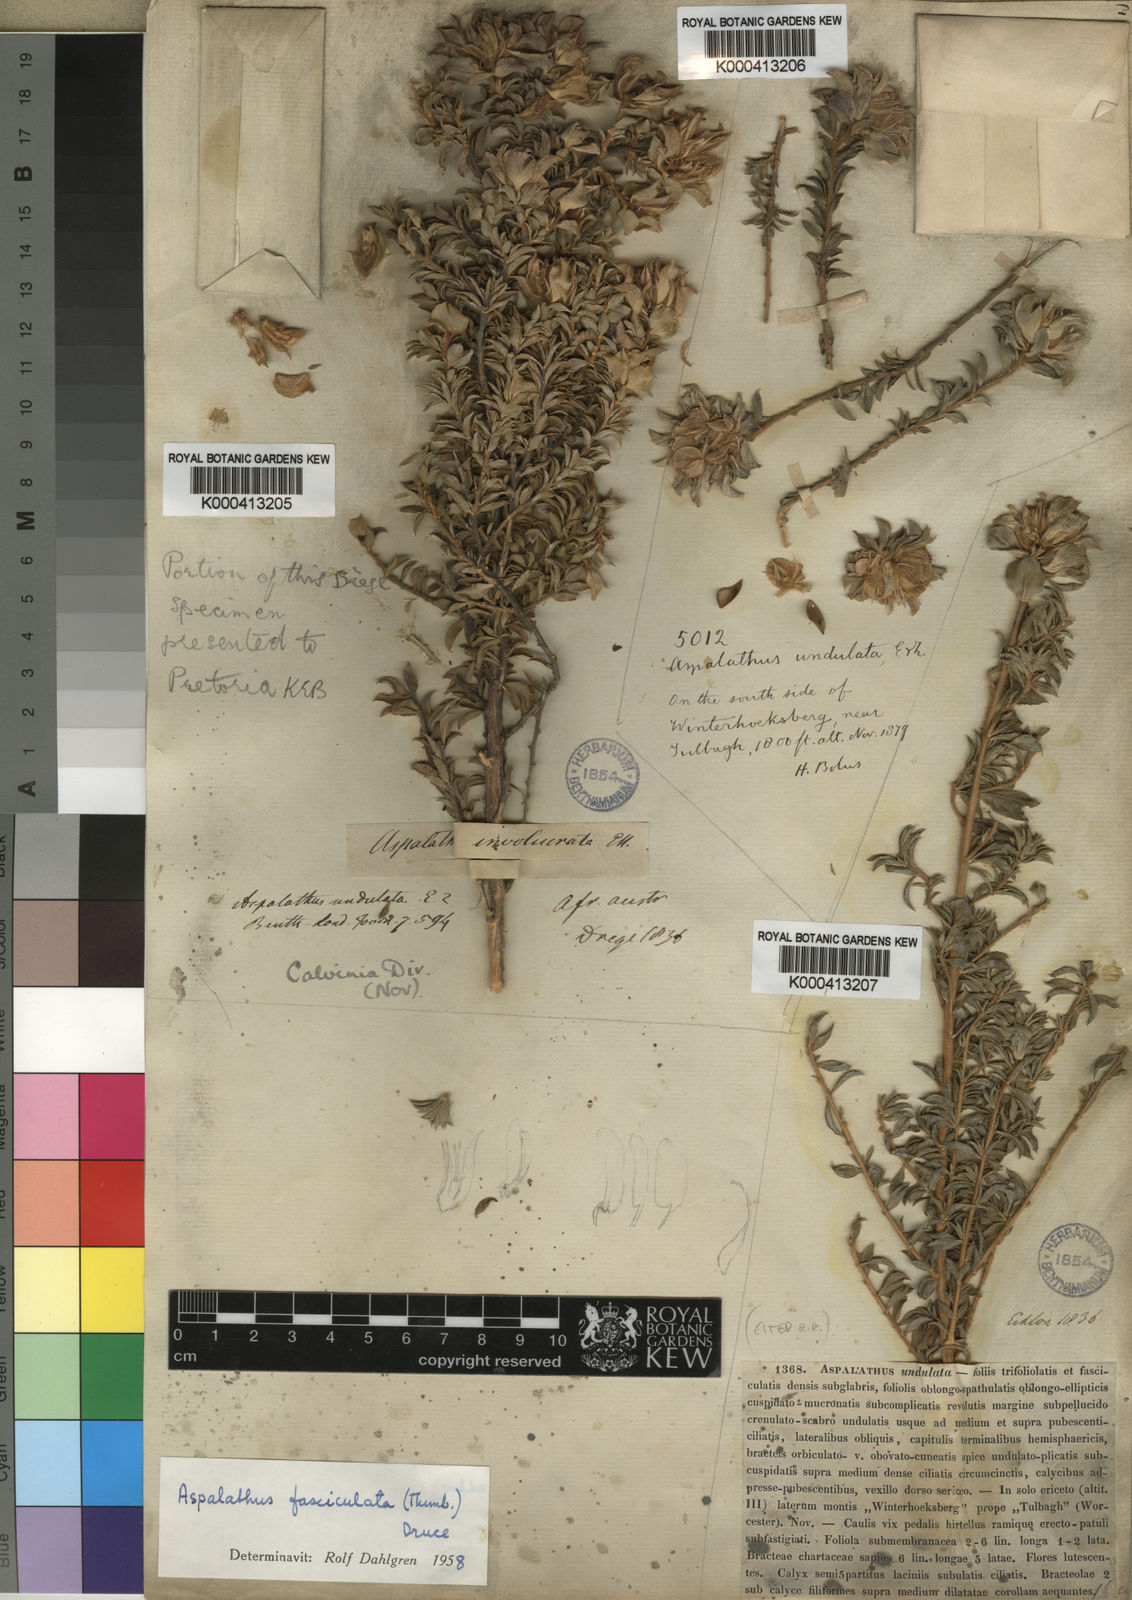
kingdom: Plantae
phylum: Tracheophyta
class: Magnoliopsida
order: Fabales
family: Fabaceae
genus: Aspalathus
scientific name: Aspalathus fasciculata
